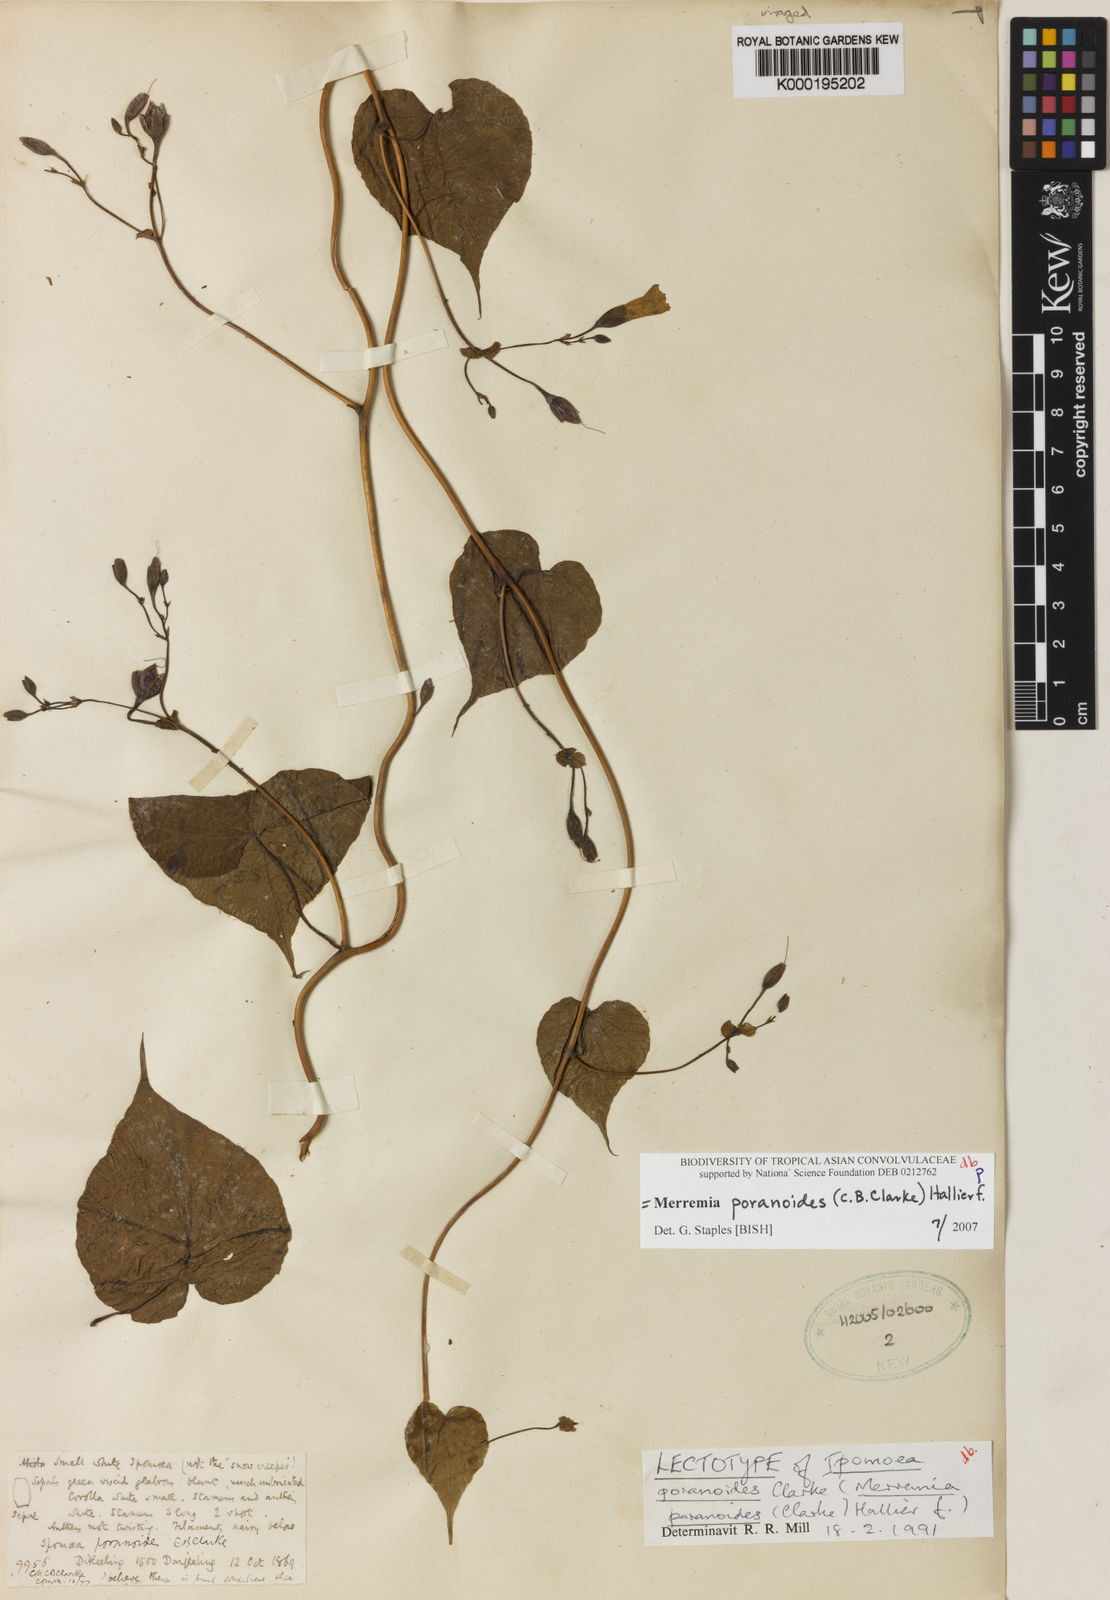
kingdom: Plantae
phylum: Tracheophyta
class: Magnoliopsida
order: Solanales
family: Convolvulaceae
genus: Merremia
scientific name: Merremia poranoides
